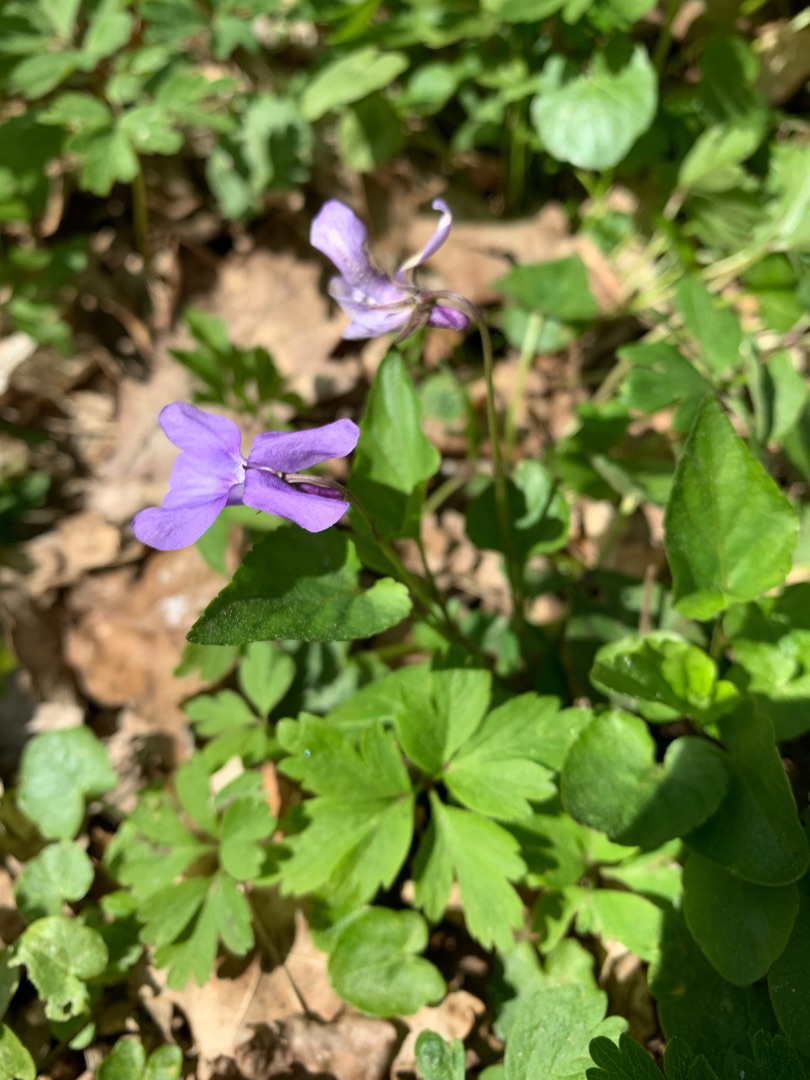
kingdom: Plantae
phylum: Tracheophyta
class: Magnoliopsida
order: Malpighiales
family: Violaceae
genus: Viola
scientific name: Viola reichenbachiana
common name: Skov-viol
